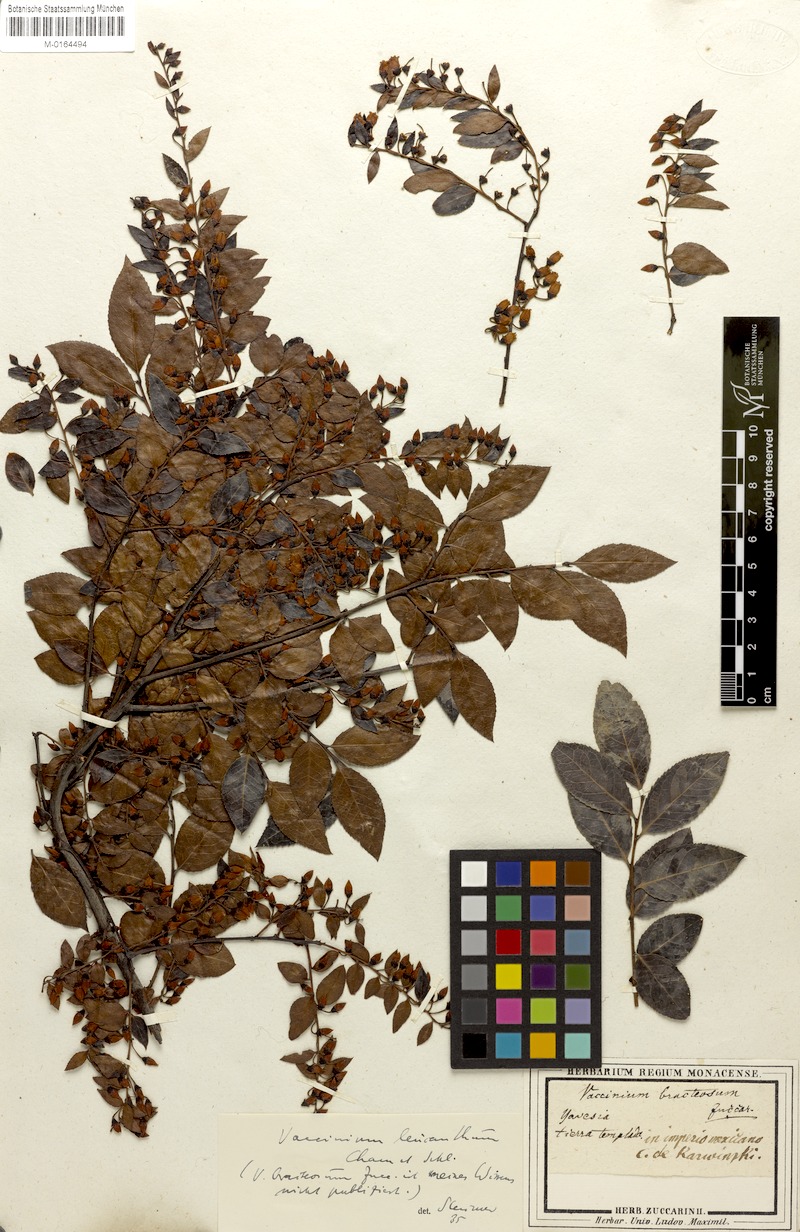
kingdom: Plantae
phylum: Tracheophyta
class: Magnoliopsida
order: Ericales
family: Ericaceae
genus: Vaccinium
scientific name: Vaccinium leucanthum
